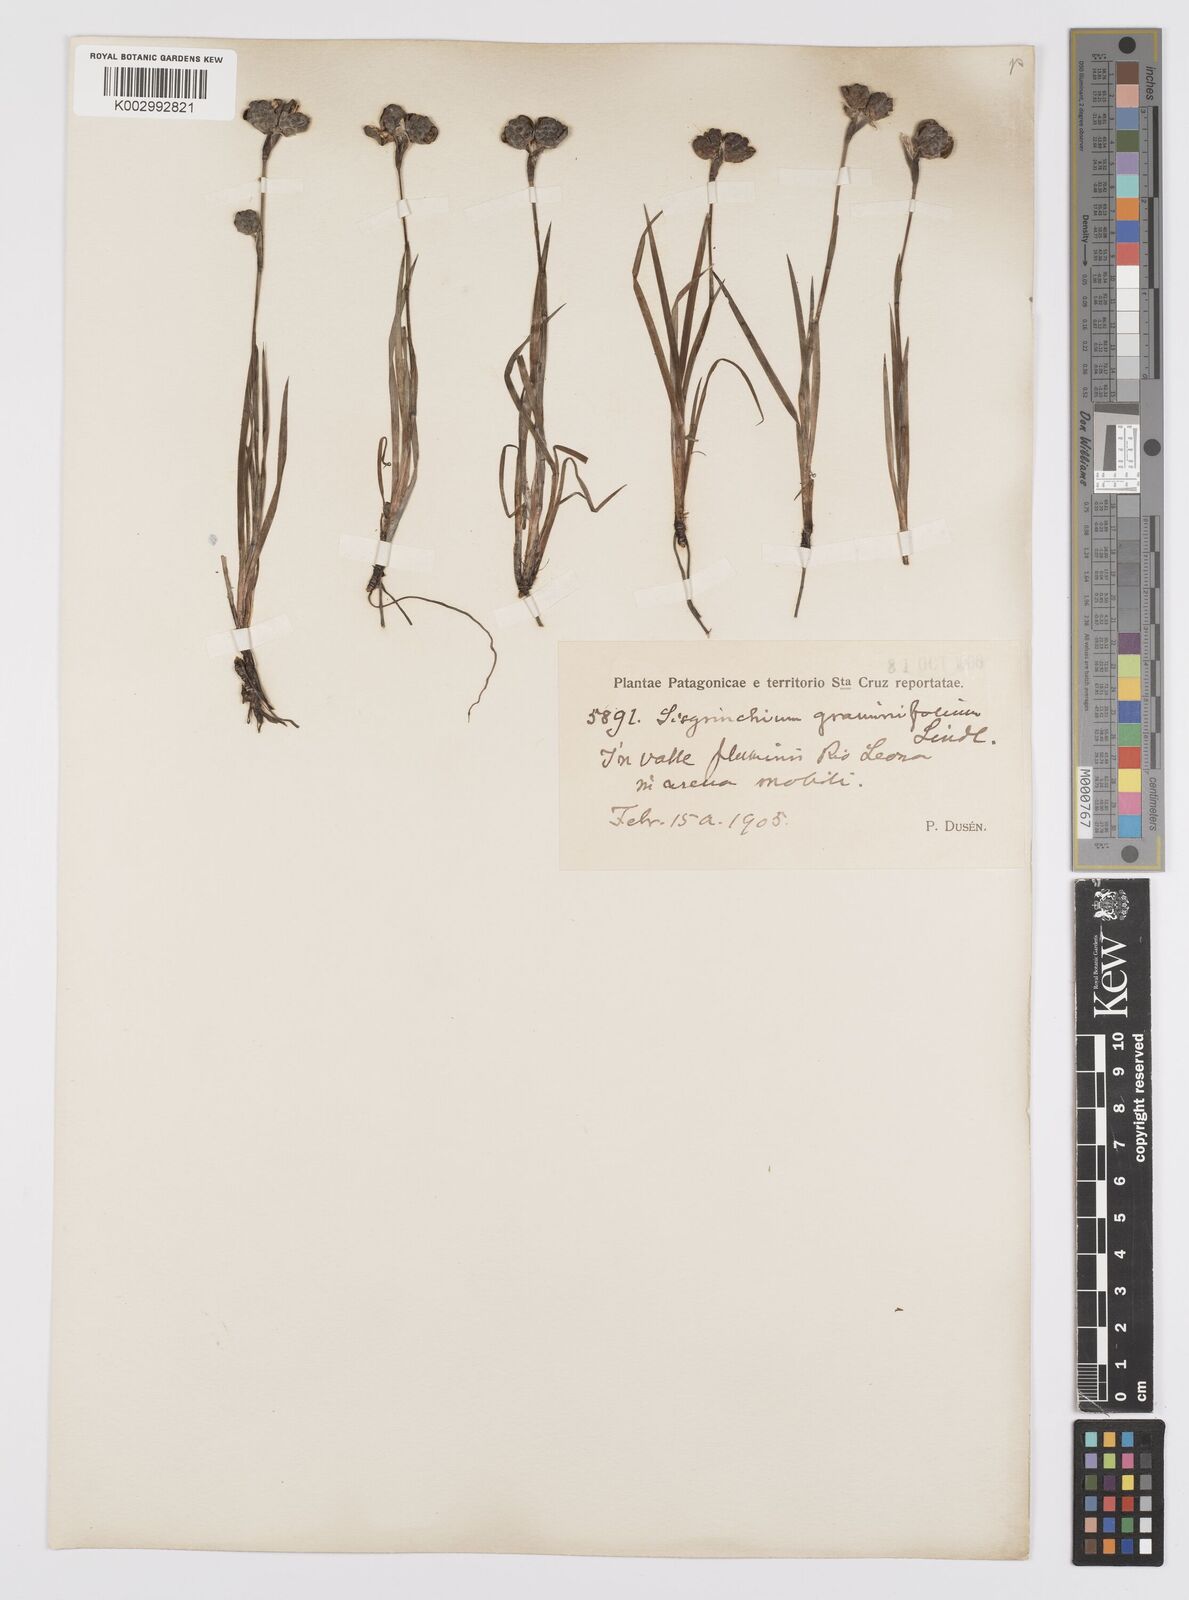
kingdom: Plantae
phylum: Tracheophyta
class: Liliopsida
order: Asparagales
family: Iridaceae
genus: Sisyrinchium
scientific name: Sisyrinchium graminifolium
